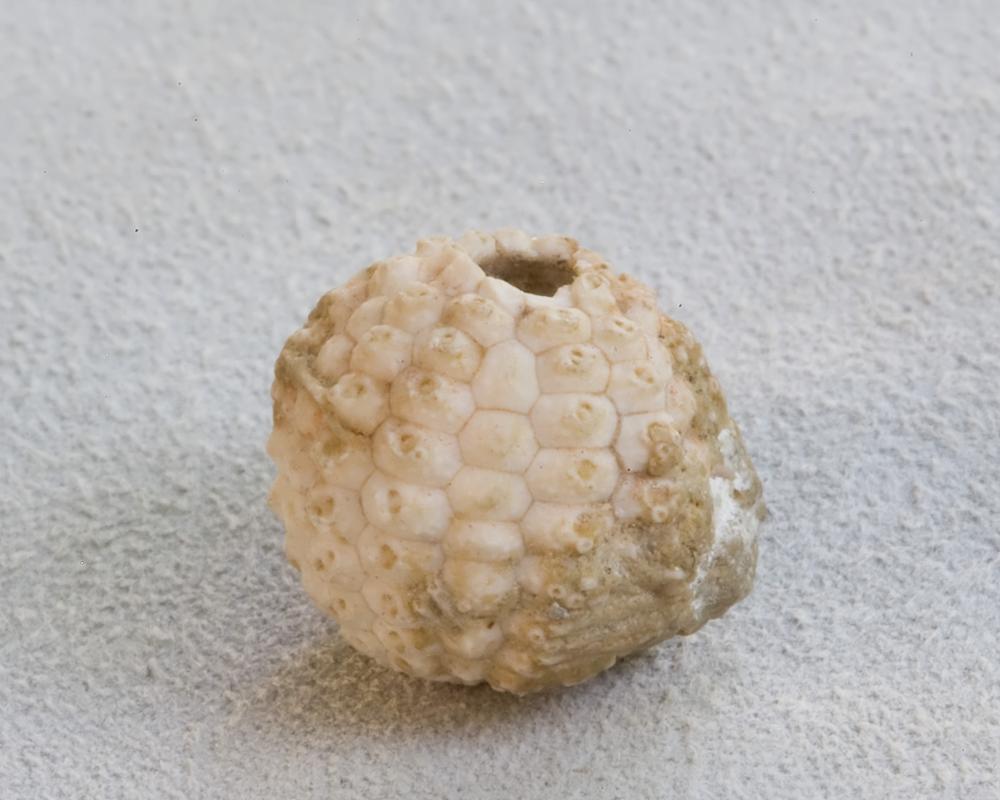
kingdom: Animalia
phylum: Echinodermata
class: Echinoidea
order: Bothriocidaroida
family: Bothriocidaridae
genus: Bothriocidaris
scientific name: Bothriocidaris
